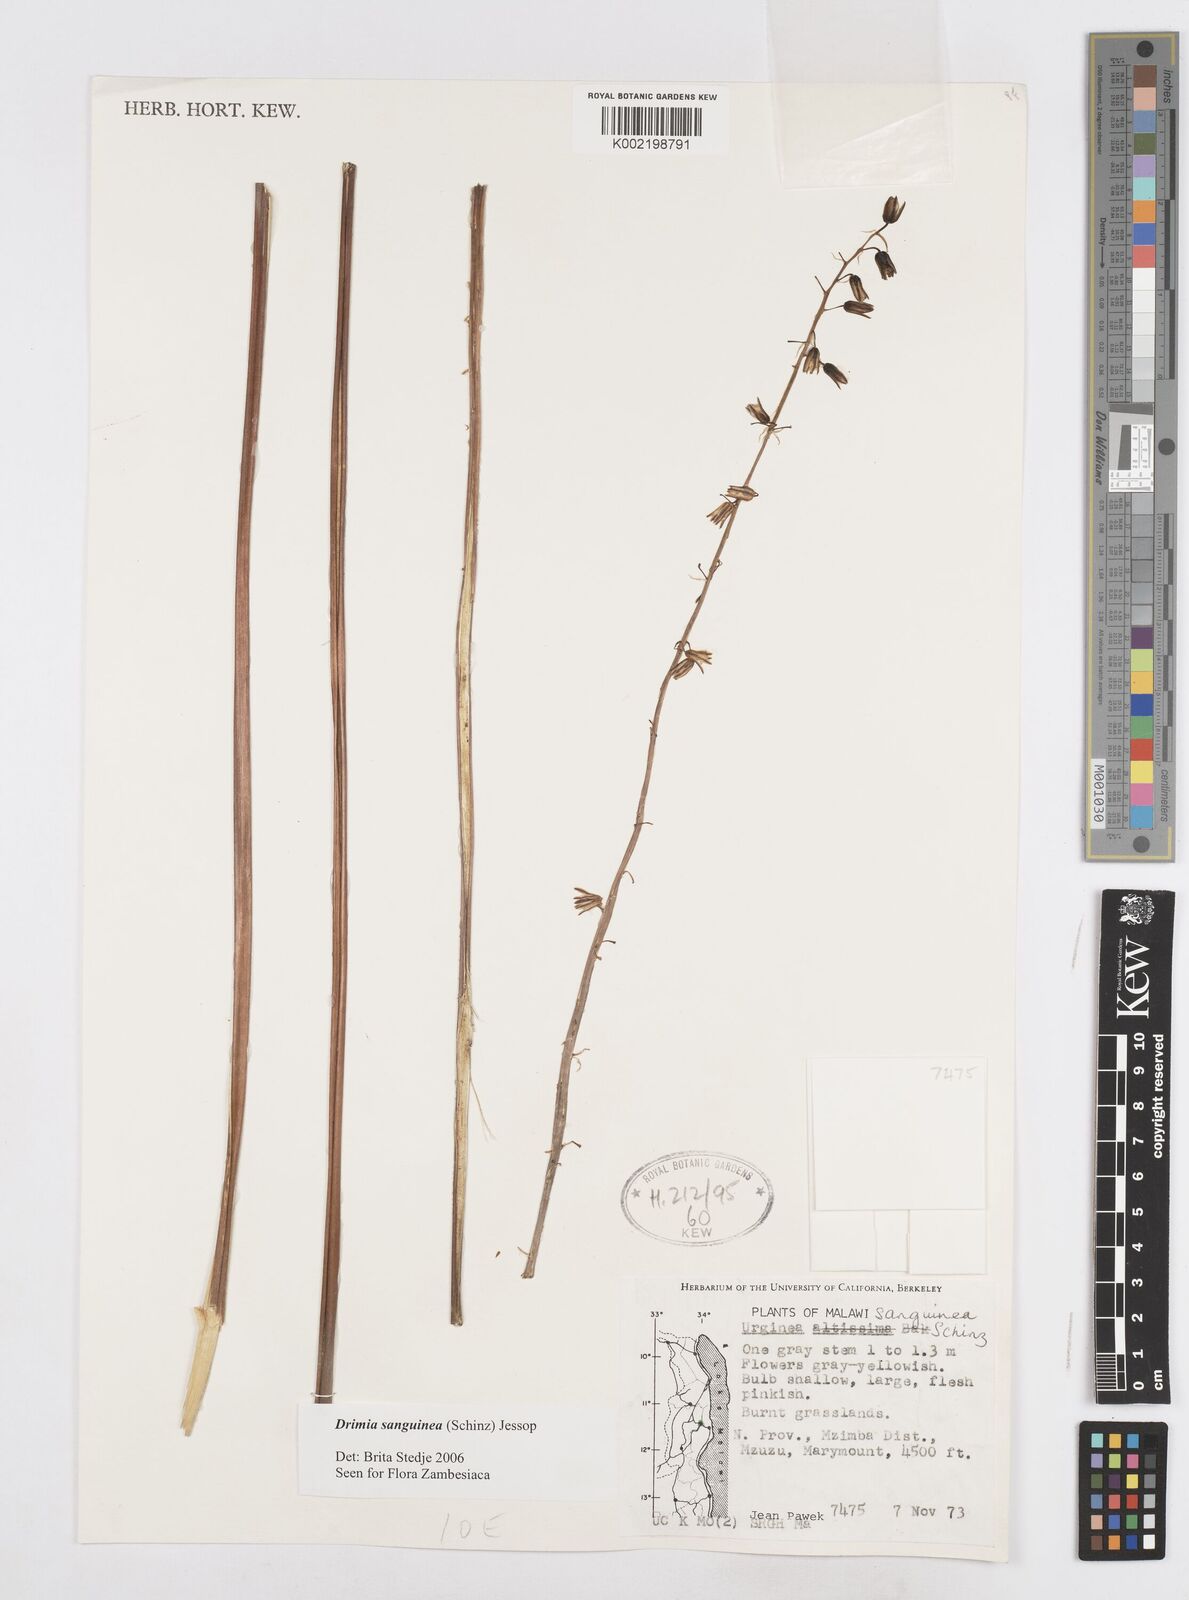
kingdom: Plantae
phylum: Tracheophyta
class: Liliopsida
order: Asparagales
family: Asparagaceae
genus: Drimia
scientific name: Drimia sanguinea
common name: Transvaal slangkop
